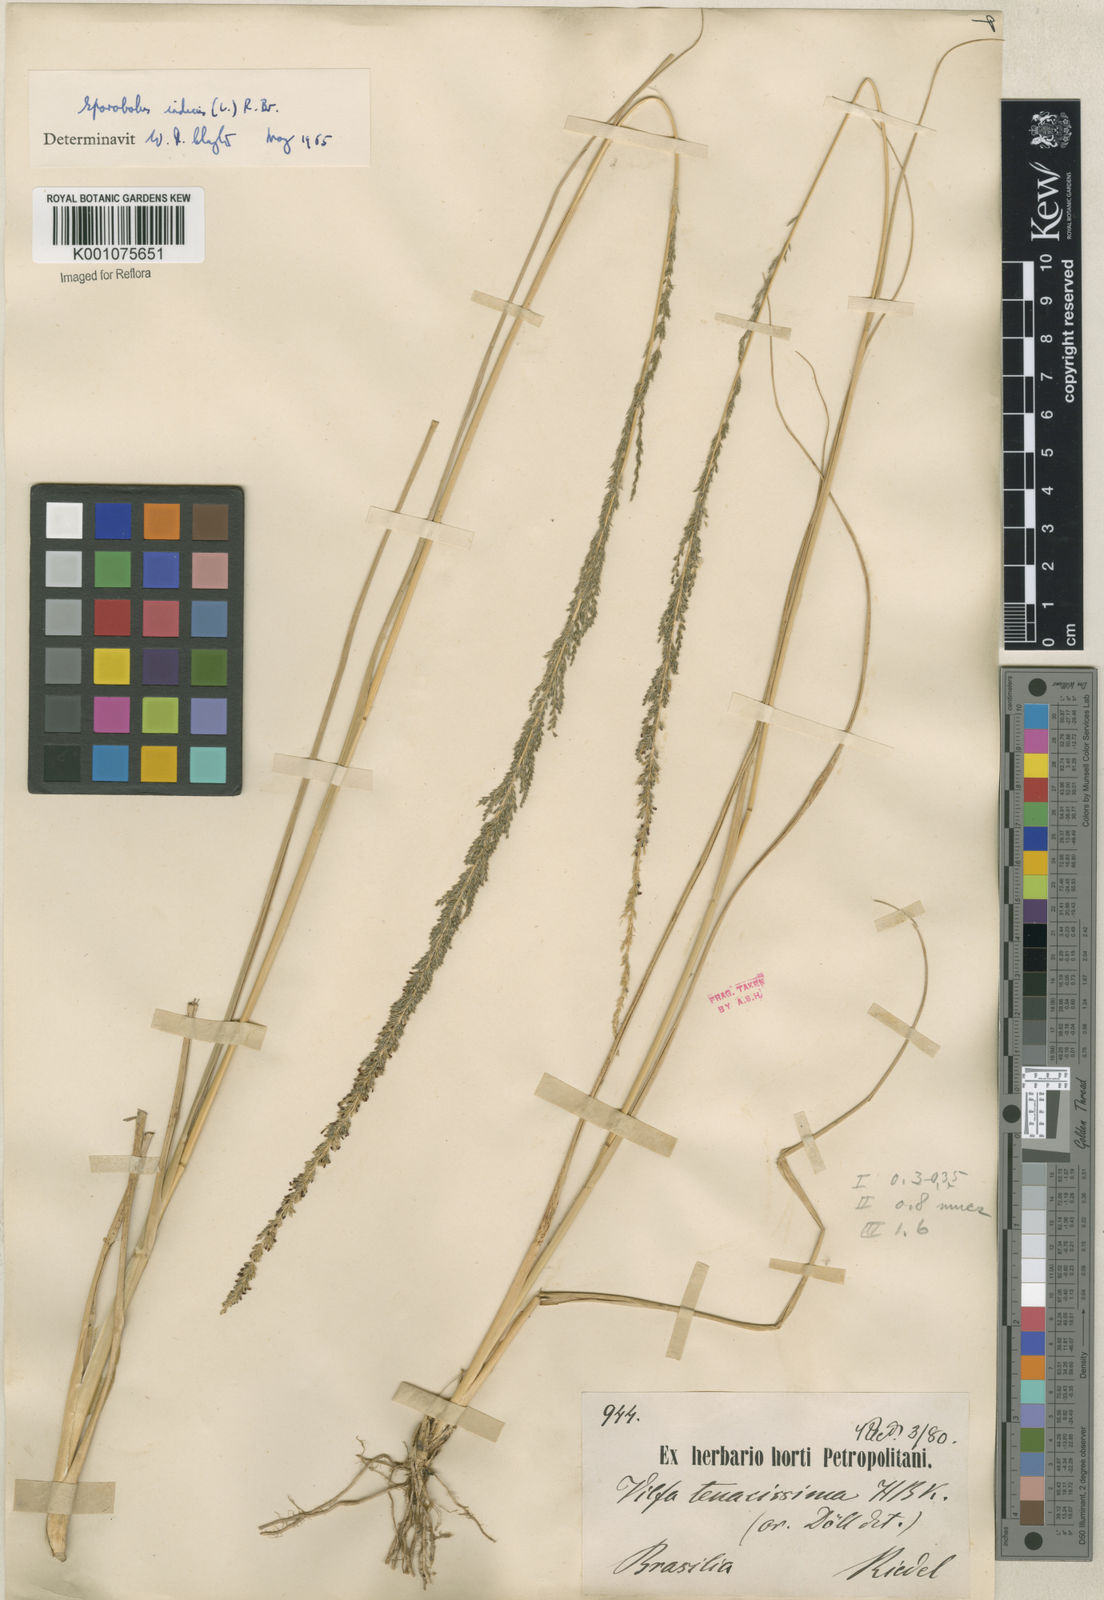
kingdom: Plantae
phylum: Tracheophyta
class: Liliopsida
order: Poales
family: Poaceae
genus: Sporobolus
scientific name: Sporobolus indicus
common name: Smut grass
